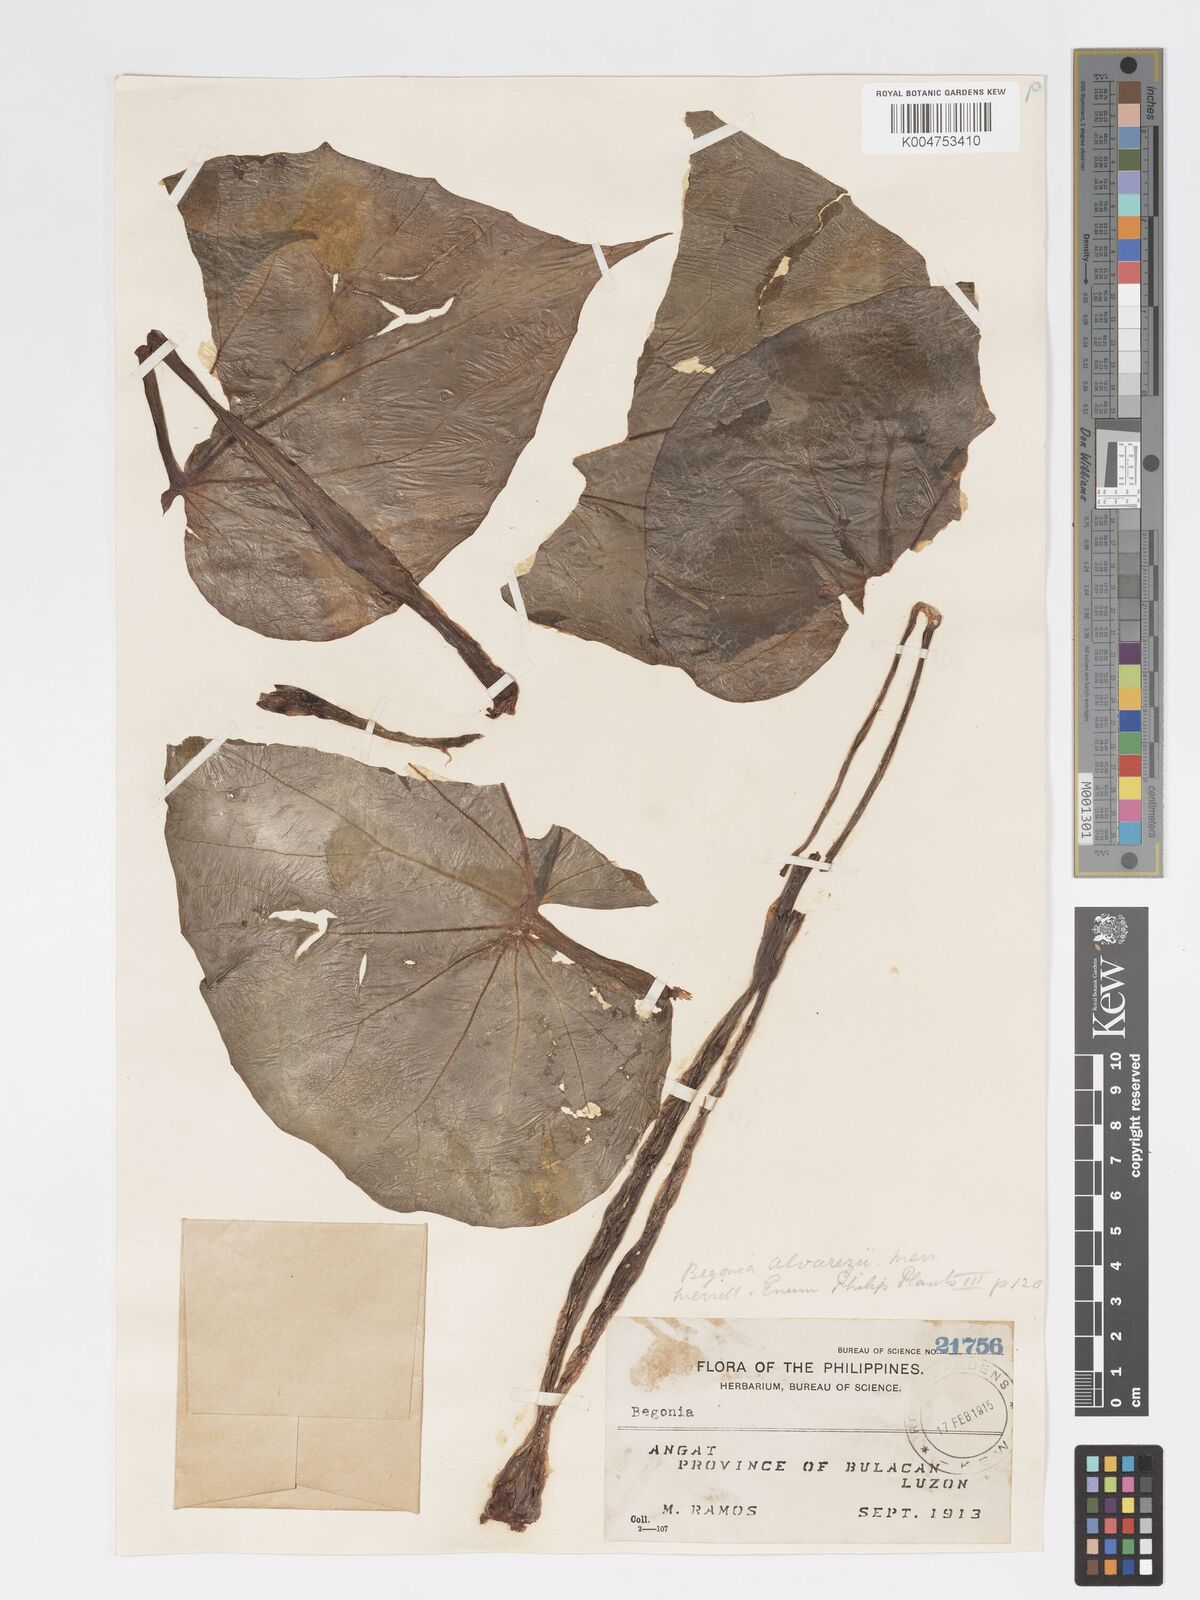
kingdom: Plantae
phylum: Tracheophyta
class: Magnoliopsida
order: Cucurbitales
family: Begoniaceae
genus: Begonia
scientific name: Begonia alvarezii
